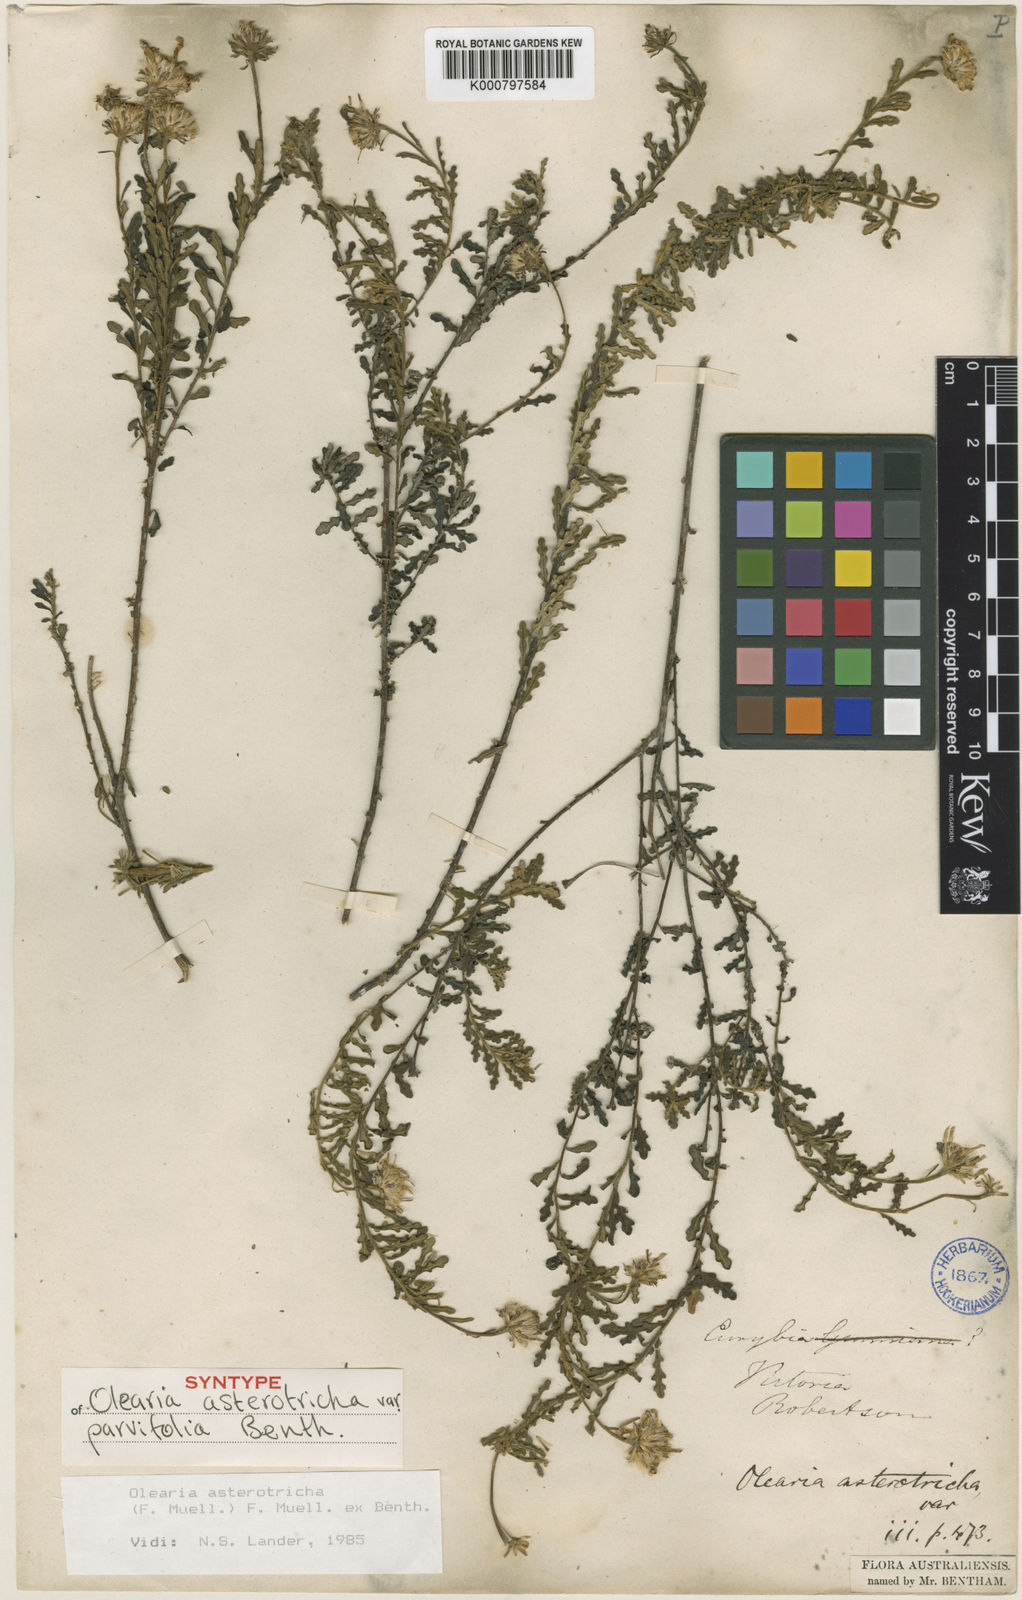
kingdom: Plantae
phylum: Tracheophyta
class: Magnoliopsida
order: Asterales
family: Asteraceae
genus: Olearia
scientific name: Olearia asterotricha
